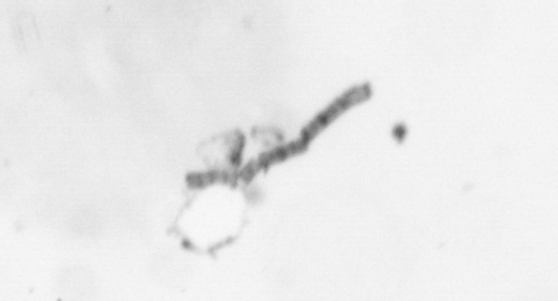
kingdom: Chromista
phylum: Ochrophyta
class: Bacillariophyceae
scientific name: Bacillariophyceae
